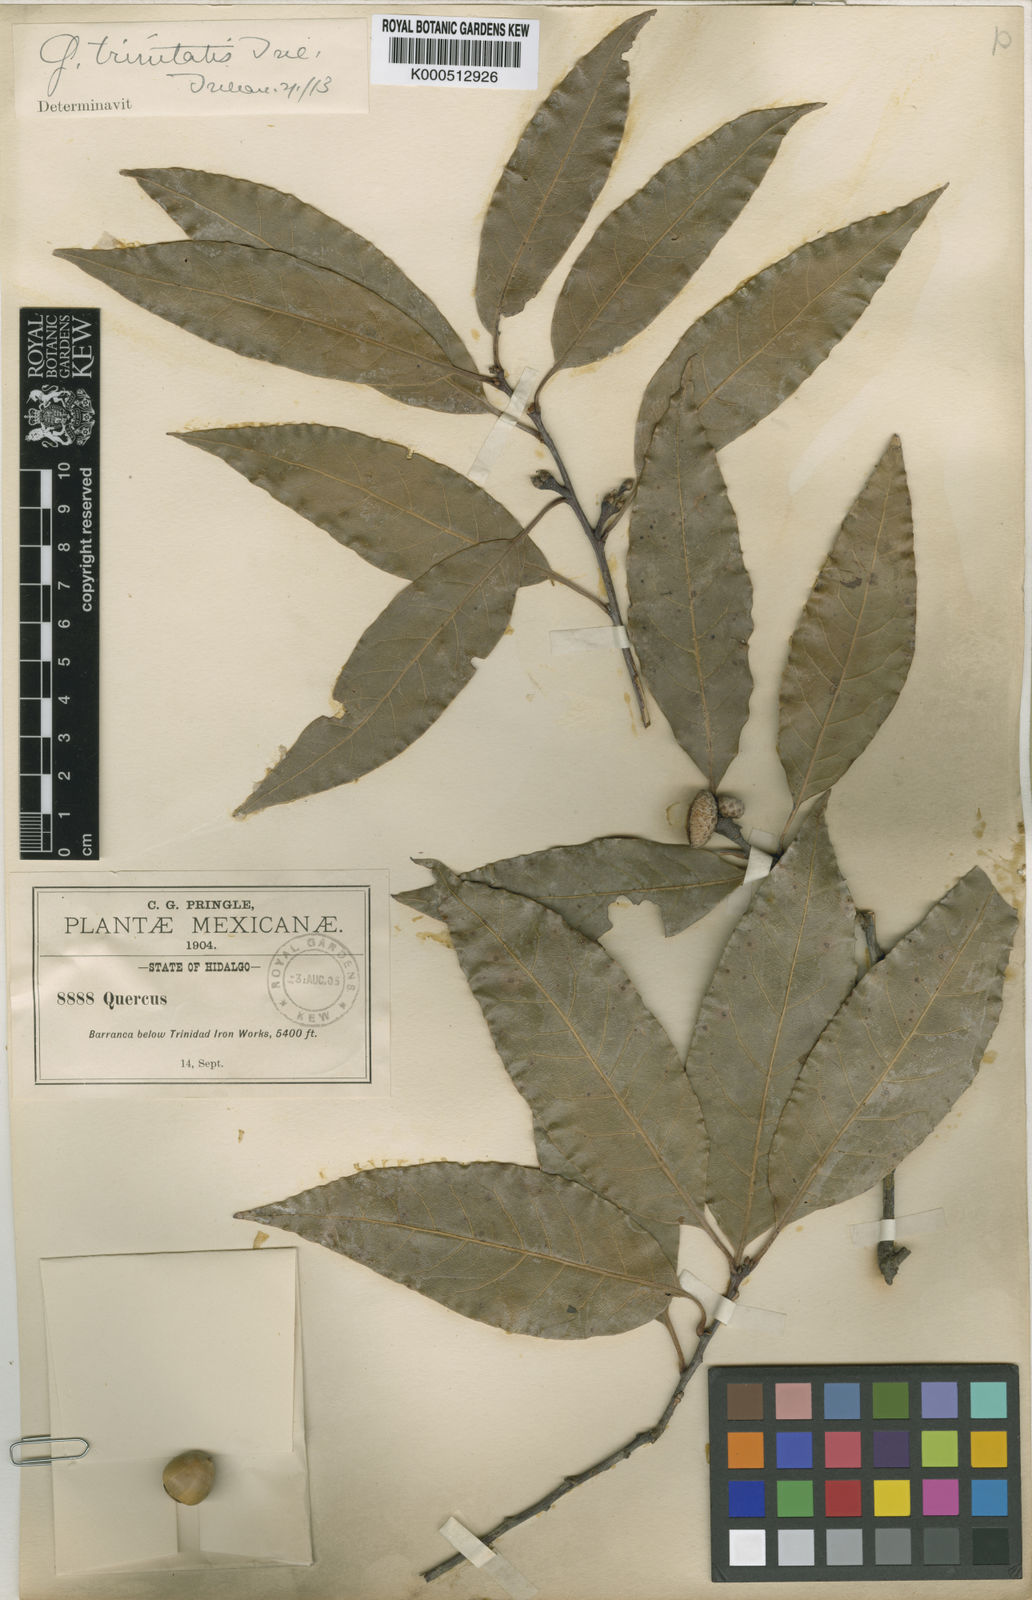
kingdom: Plantae
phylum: Tracheophyta
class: Magnoliopsida
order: Fagales
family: Fagaceae
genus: Quercus
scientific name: Quercus laurina
